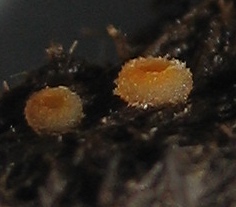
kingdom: Fungi
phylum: Ascomycota
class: Pezizomycetes
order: Pezizales
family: Pyronemataceae
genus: Cheilymenia
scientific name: Cheilymenia
